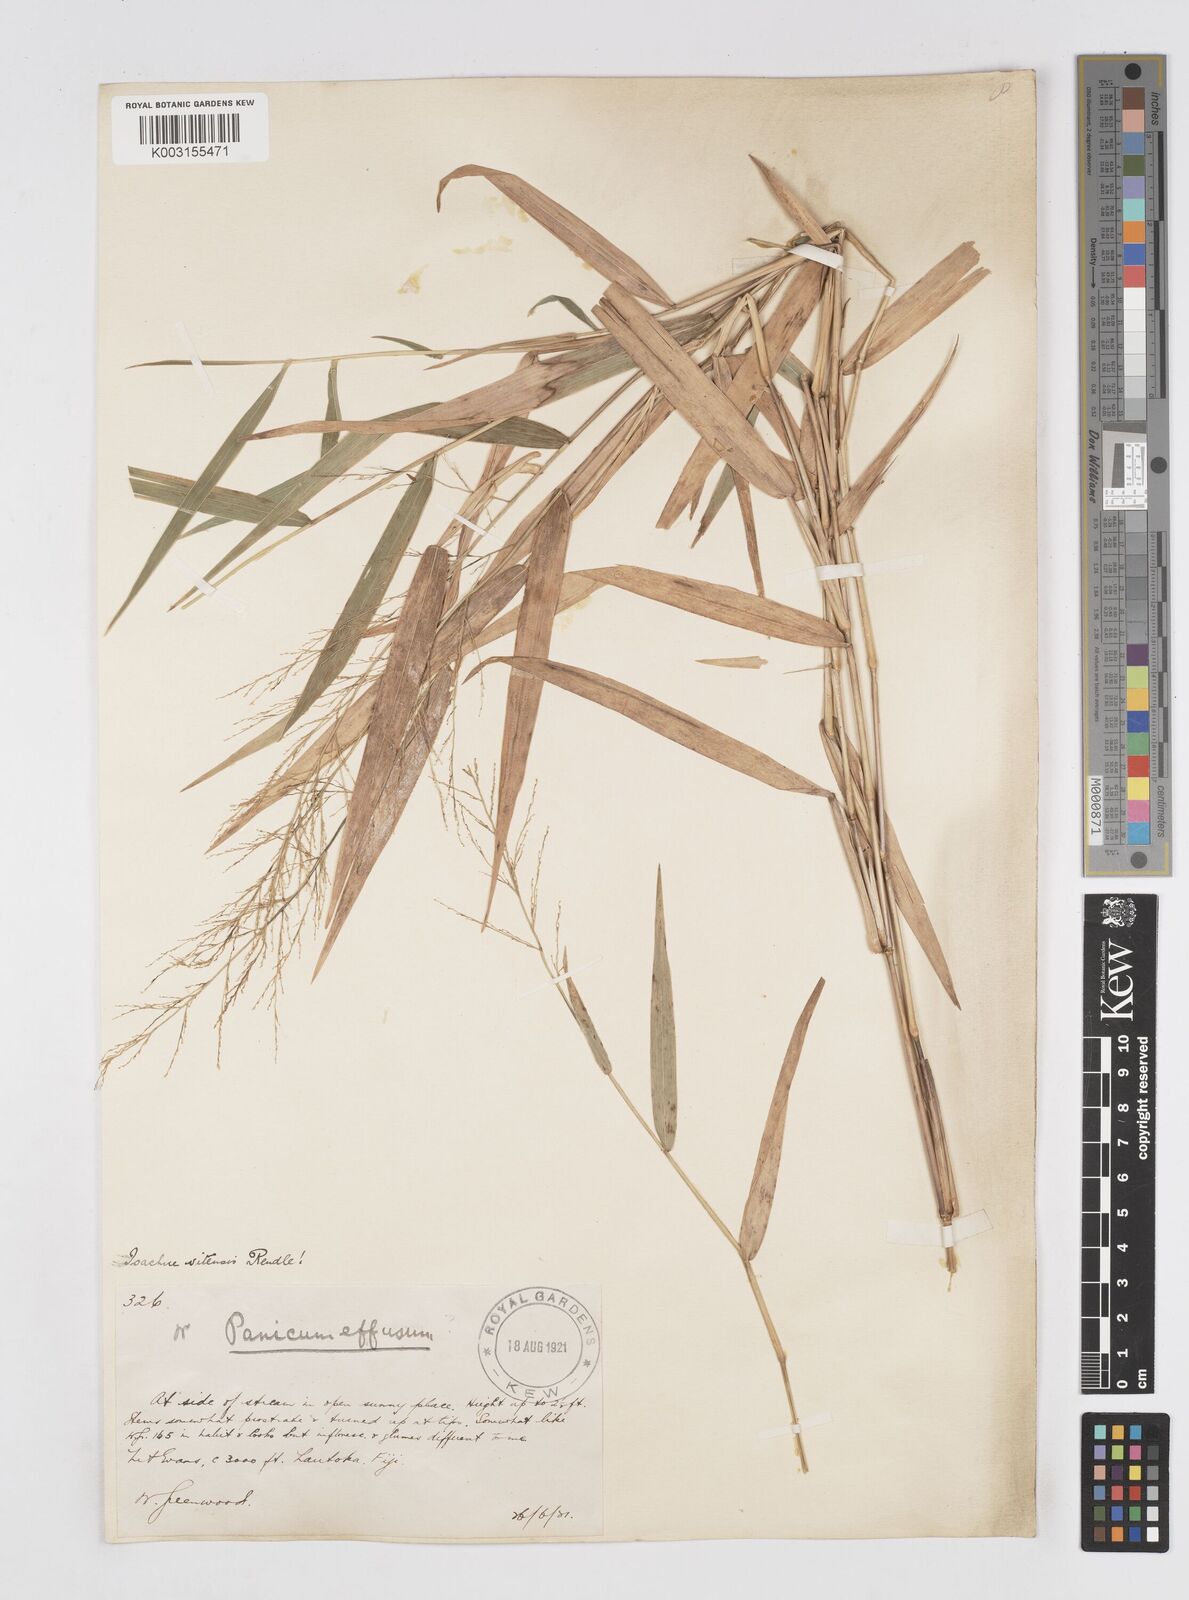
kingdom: Plantae
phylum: Tracheophyta
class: Liliopsida
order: Poales
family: Poaceae
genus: Isachne
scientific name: Isachne vitiensis
